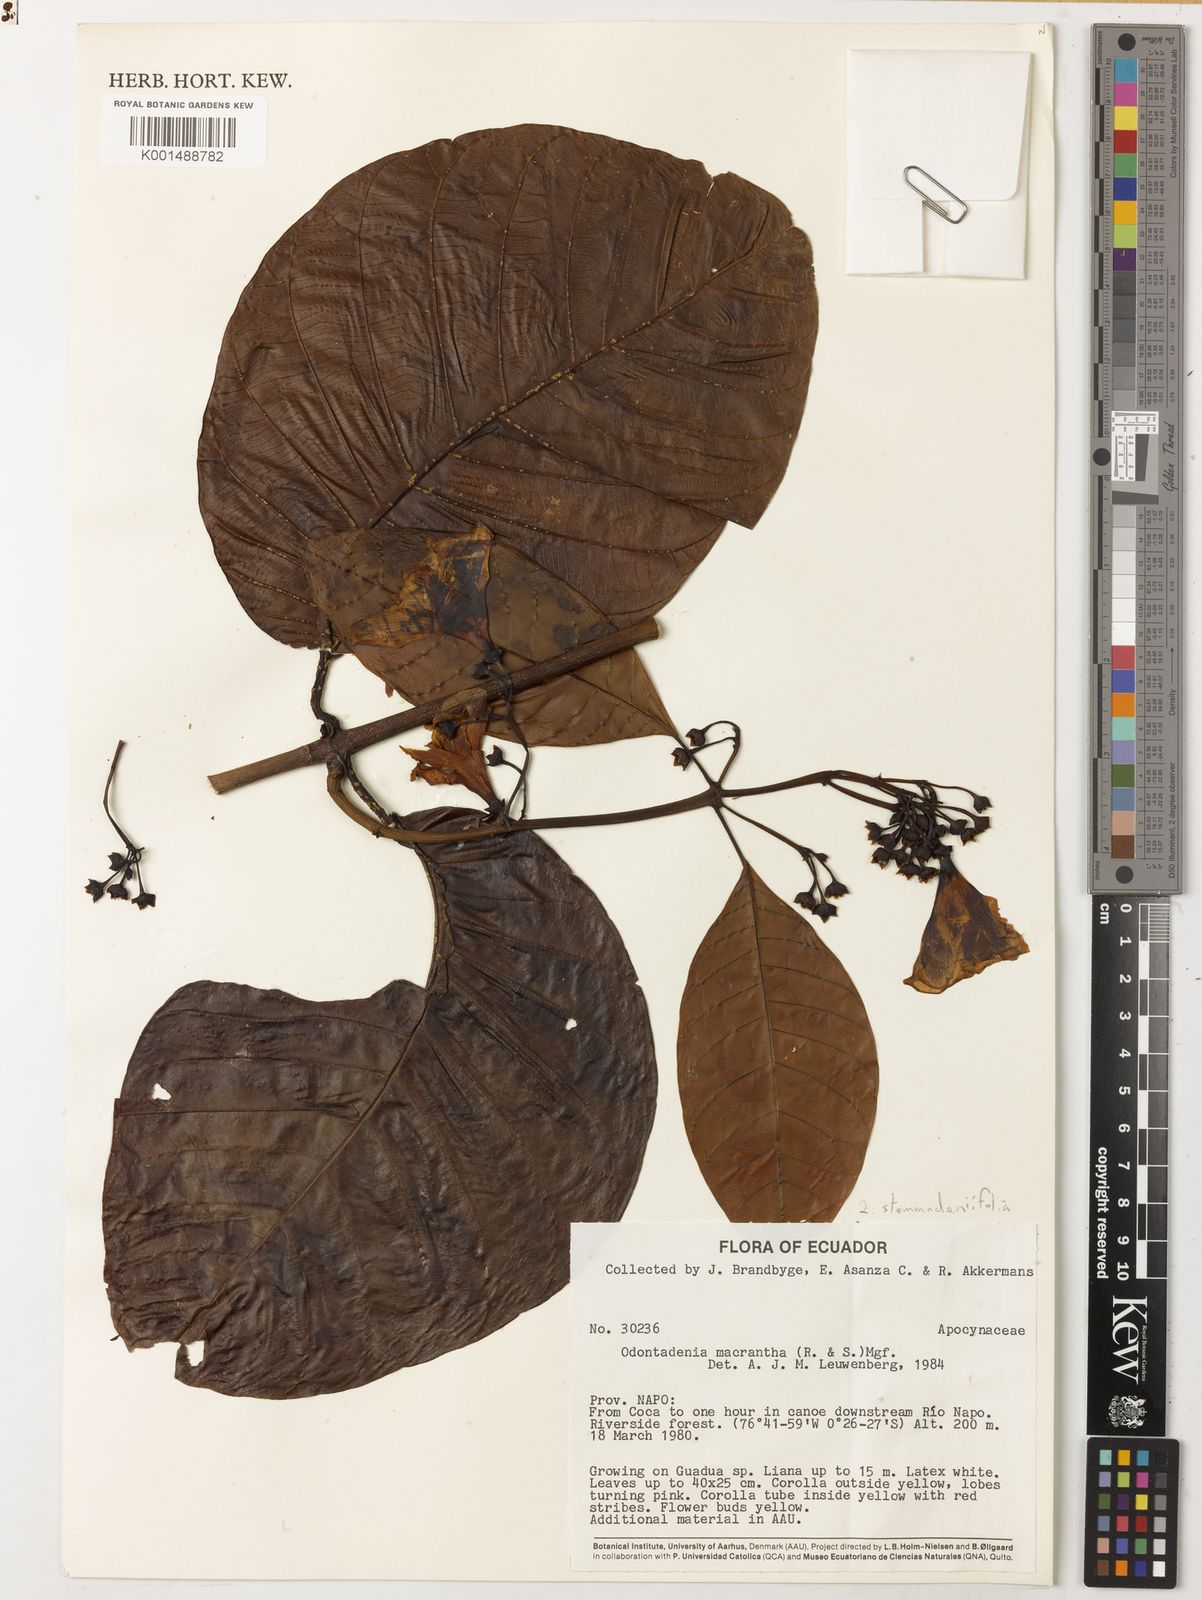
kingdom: Plantae
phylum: Tracheophyta
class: Magnoliopsida
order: Gentianales
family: Apocynaceae
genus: Odontadenia
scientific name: Odontadenia stemmadeniifolia
